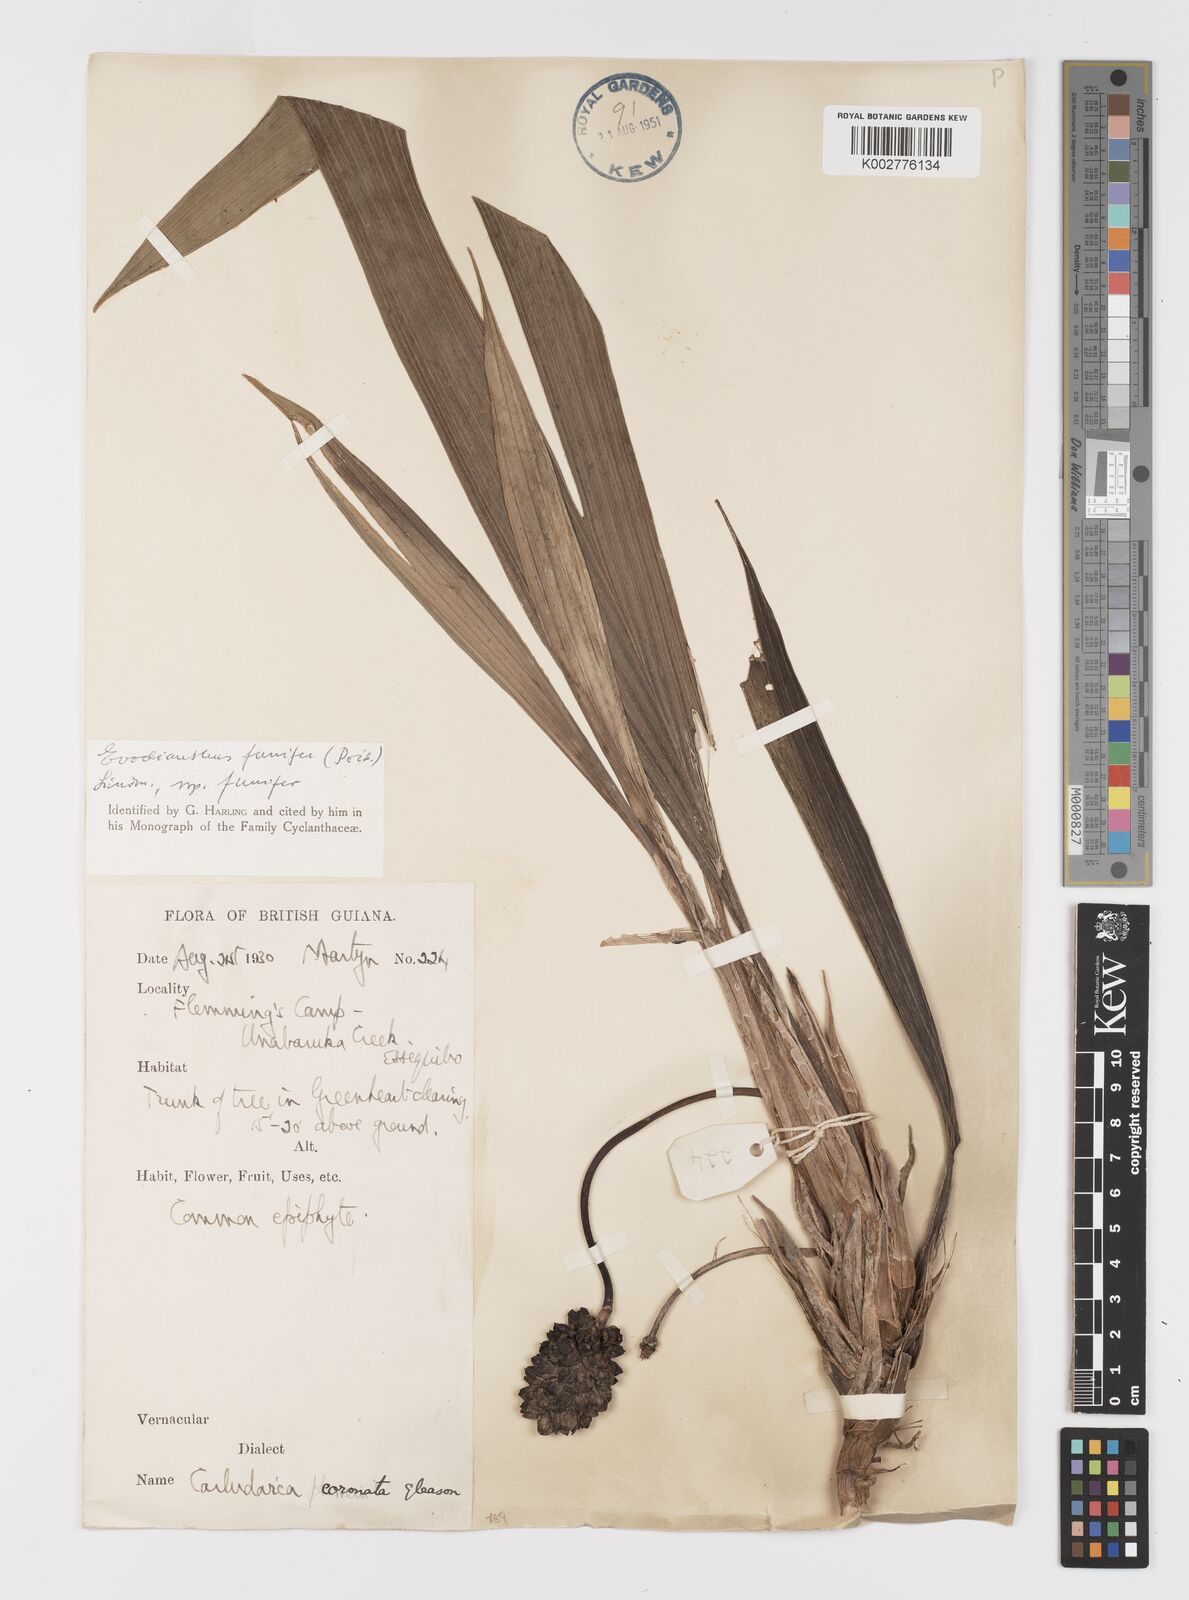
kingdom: Plantae
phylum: Tracheophyta
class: Liliopsida
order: Pandanales
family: Cyclanthaceae
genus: Evodianthus
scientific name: Evodianthus funifer
